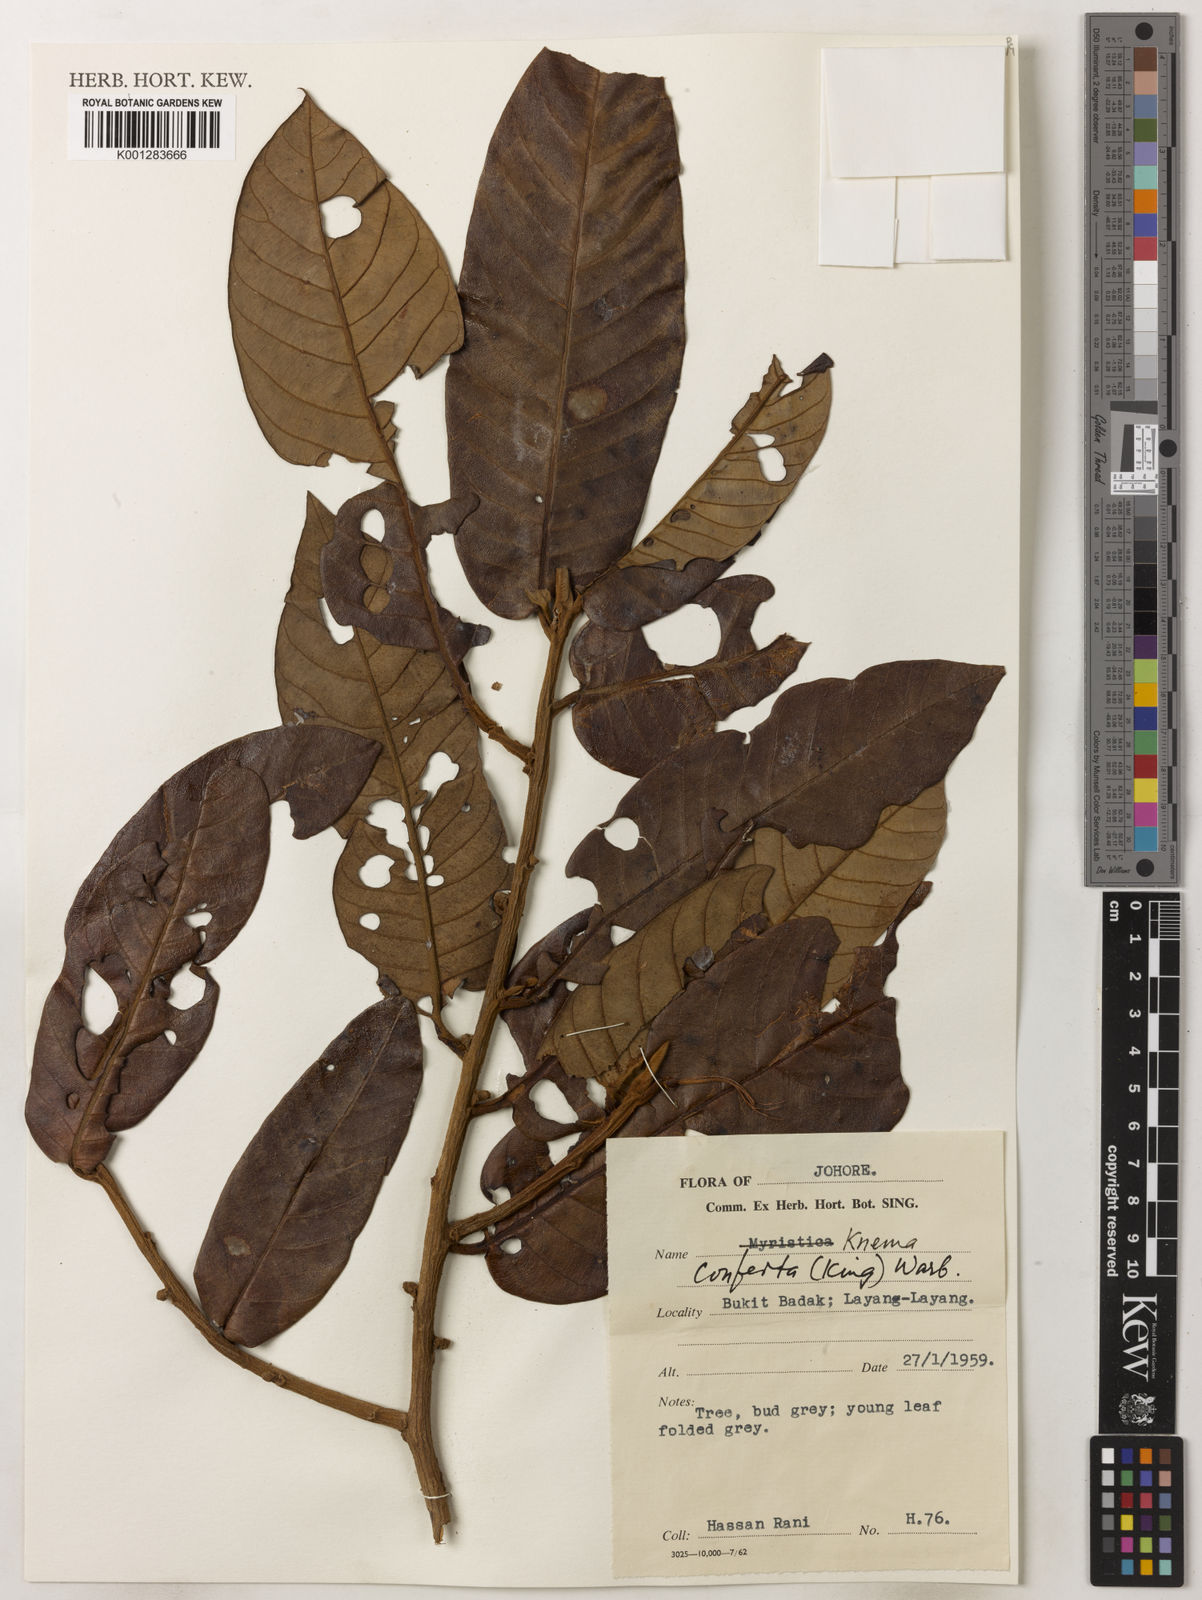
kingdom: Plantae
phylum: Tracheophyta
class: Magnoliopsida
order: Magnoliales
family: Myristicaceae
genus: Knema
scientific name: Knema conferta
